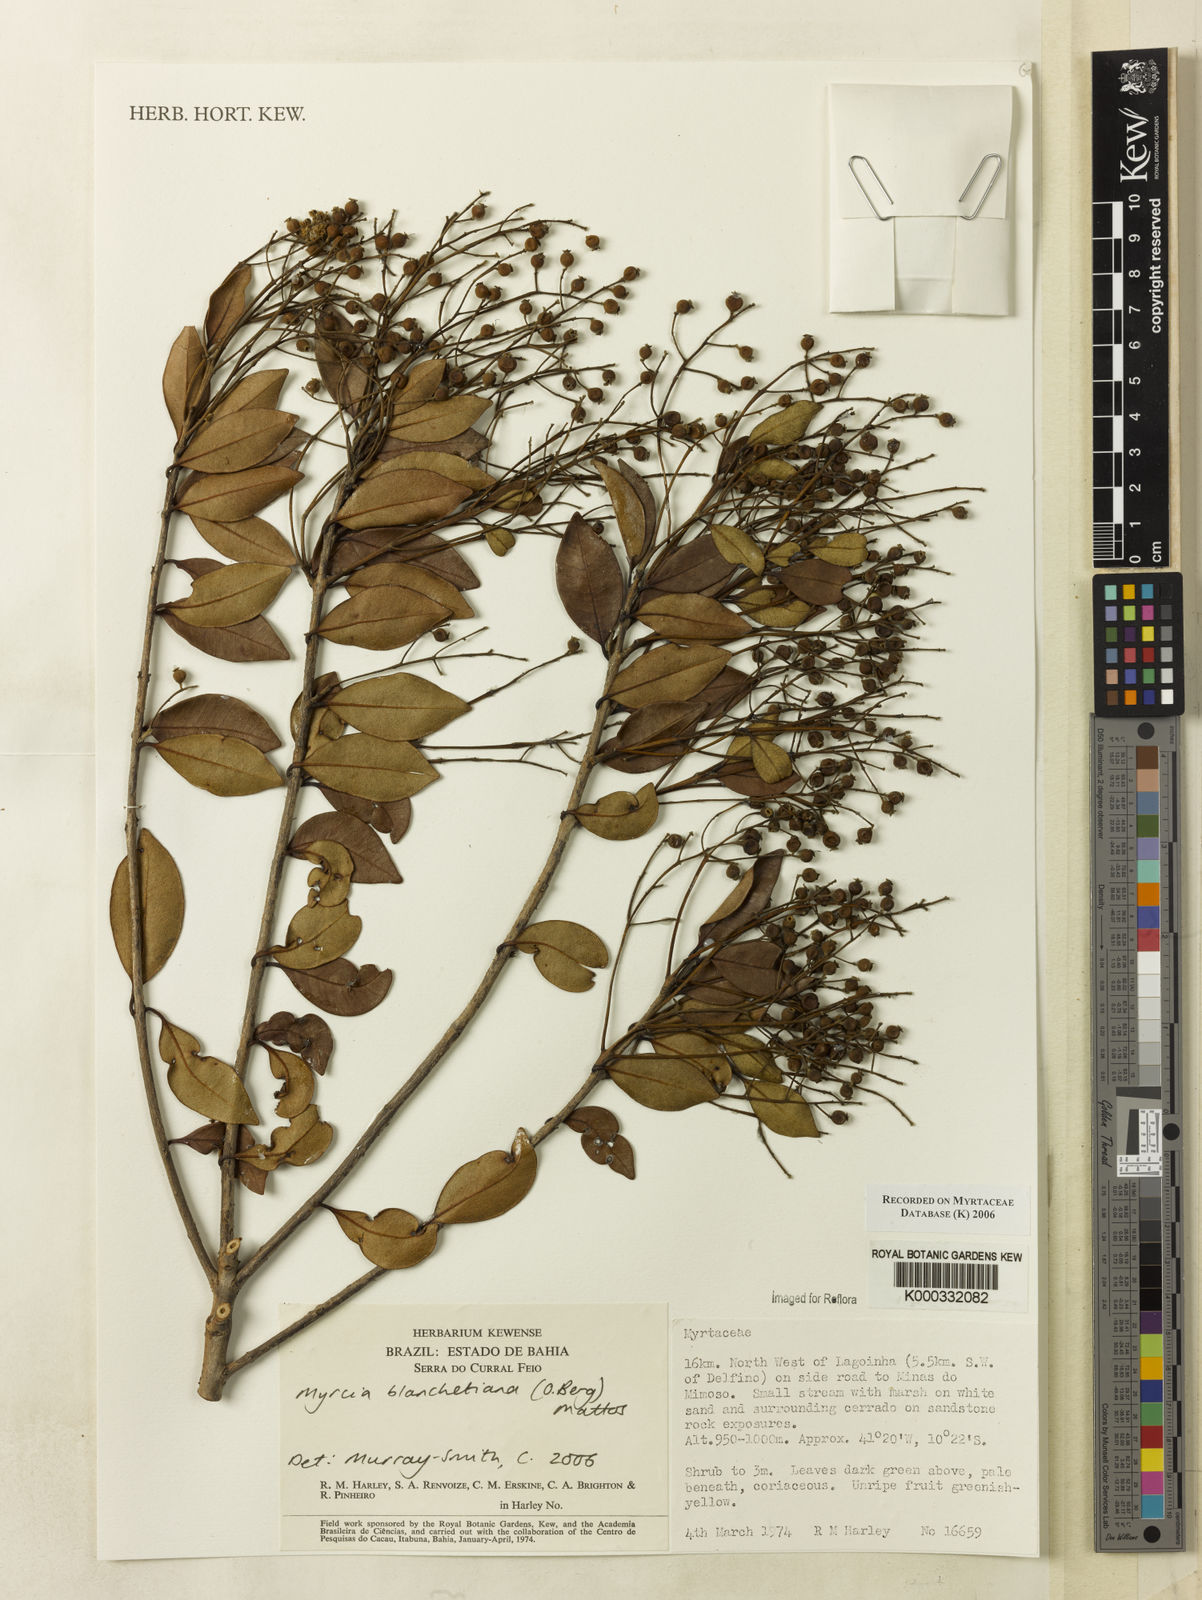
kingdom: Plantae
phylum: Tracheophyta
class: Magnoliopsida
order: Myrtales
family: Myrtaceae
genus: Myrcia
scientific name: Myrcia blanchetiana
